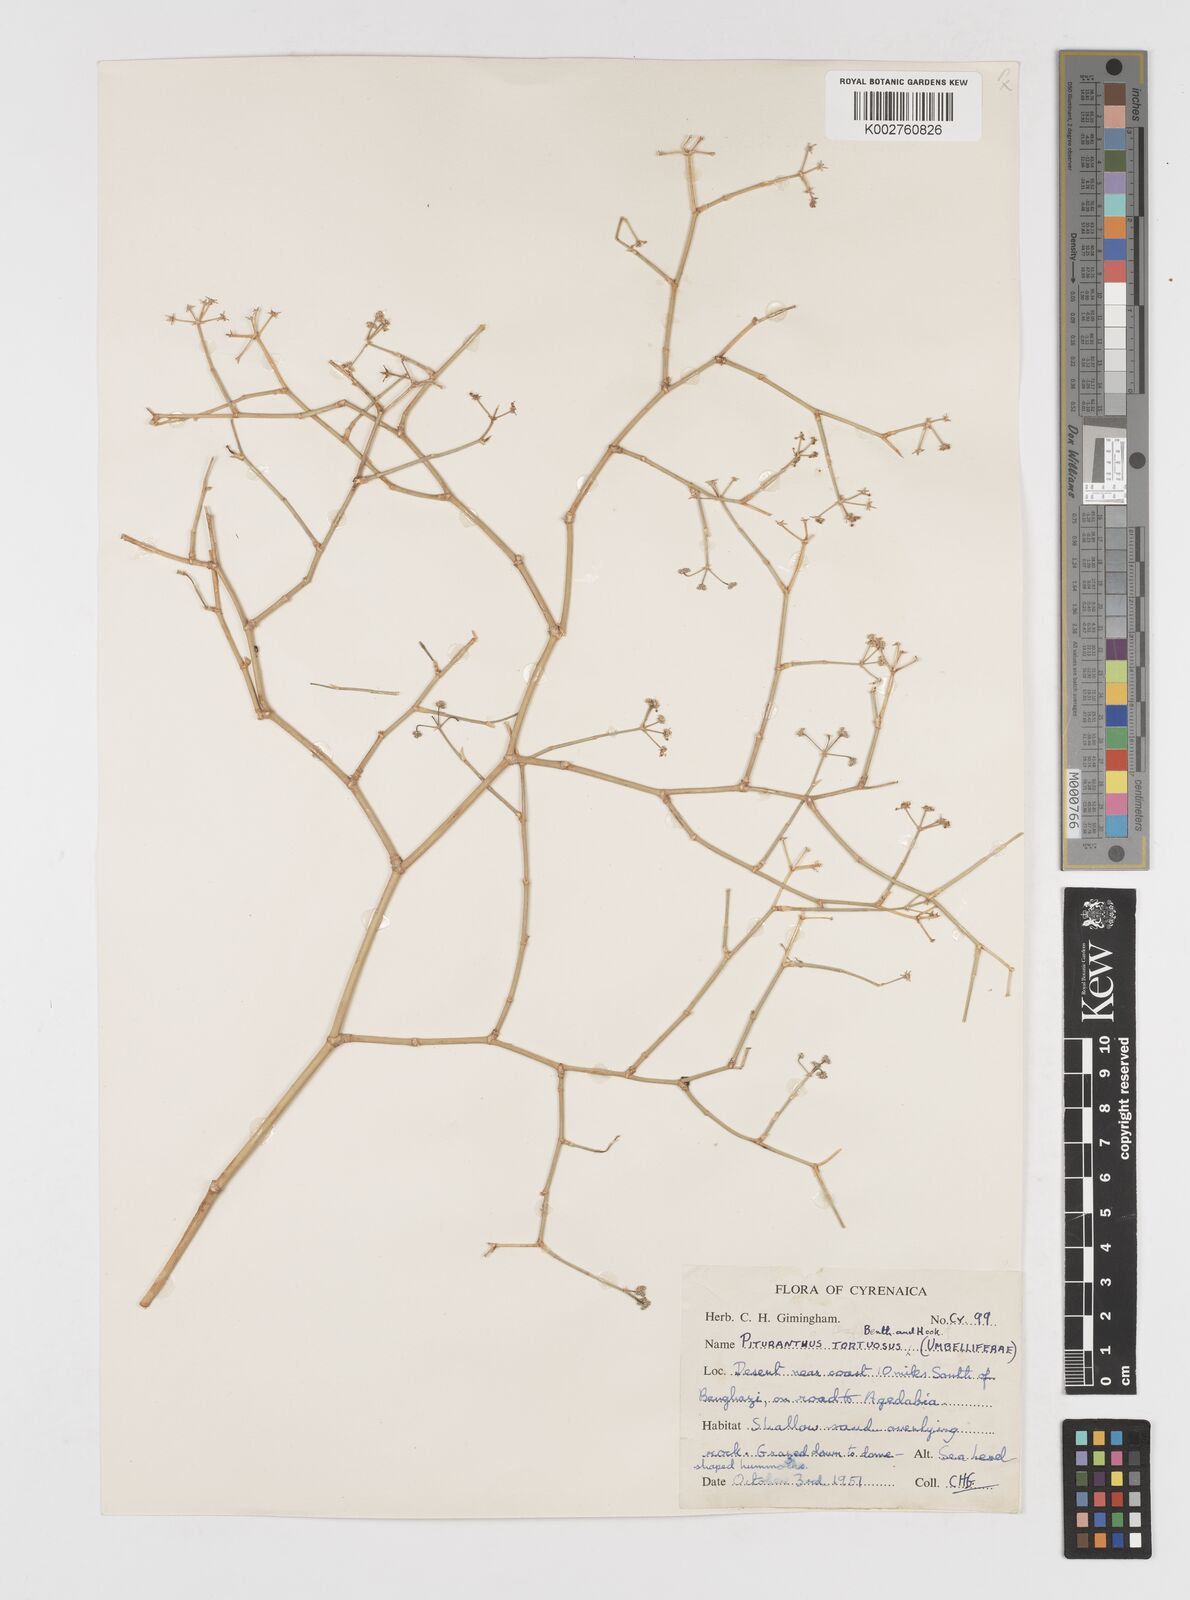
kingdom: Plantae
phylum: Tracheophyta
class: Magnoliopsida
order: Apiales
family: Apiaceae
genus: Deverra
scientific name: Deverra tortuosa
